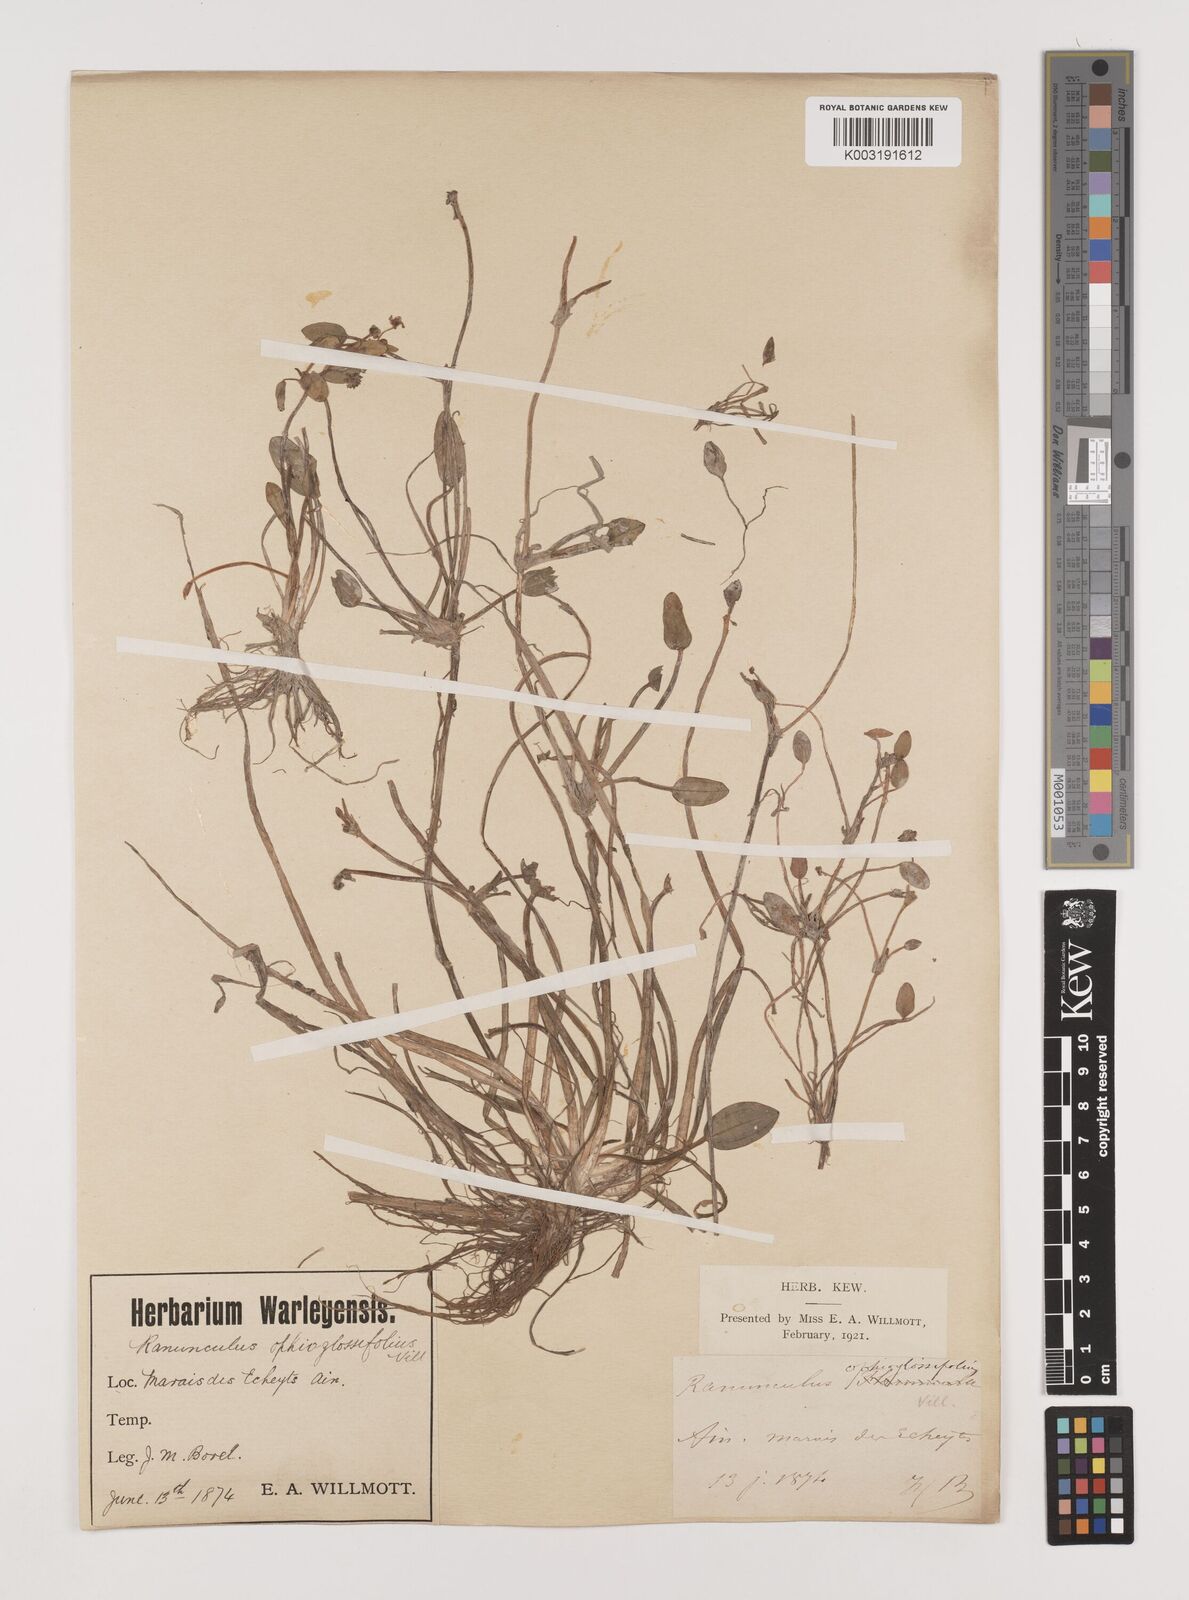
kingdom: Plantae
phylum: Tracheophyta
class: Liliopsida
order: Alismatales
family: Alismataceae
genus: Luronium
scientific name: Luronium natans
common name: Floating water-plantain
